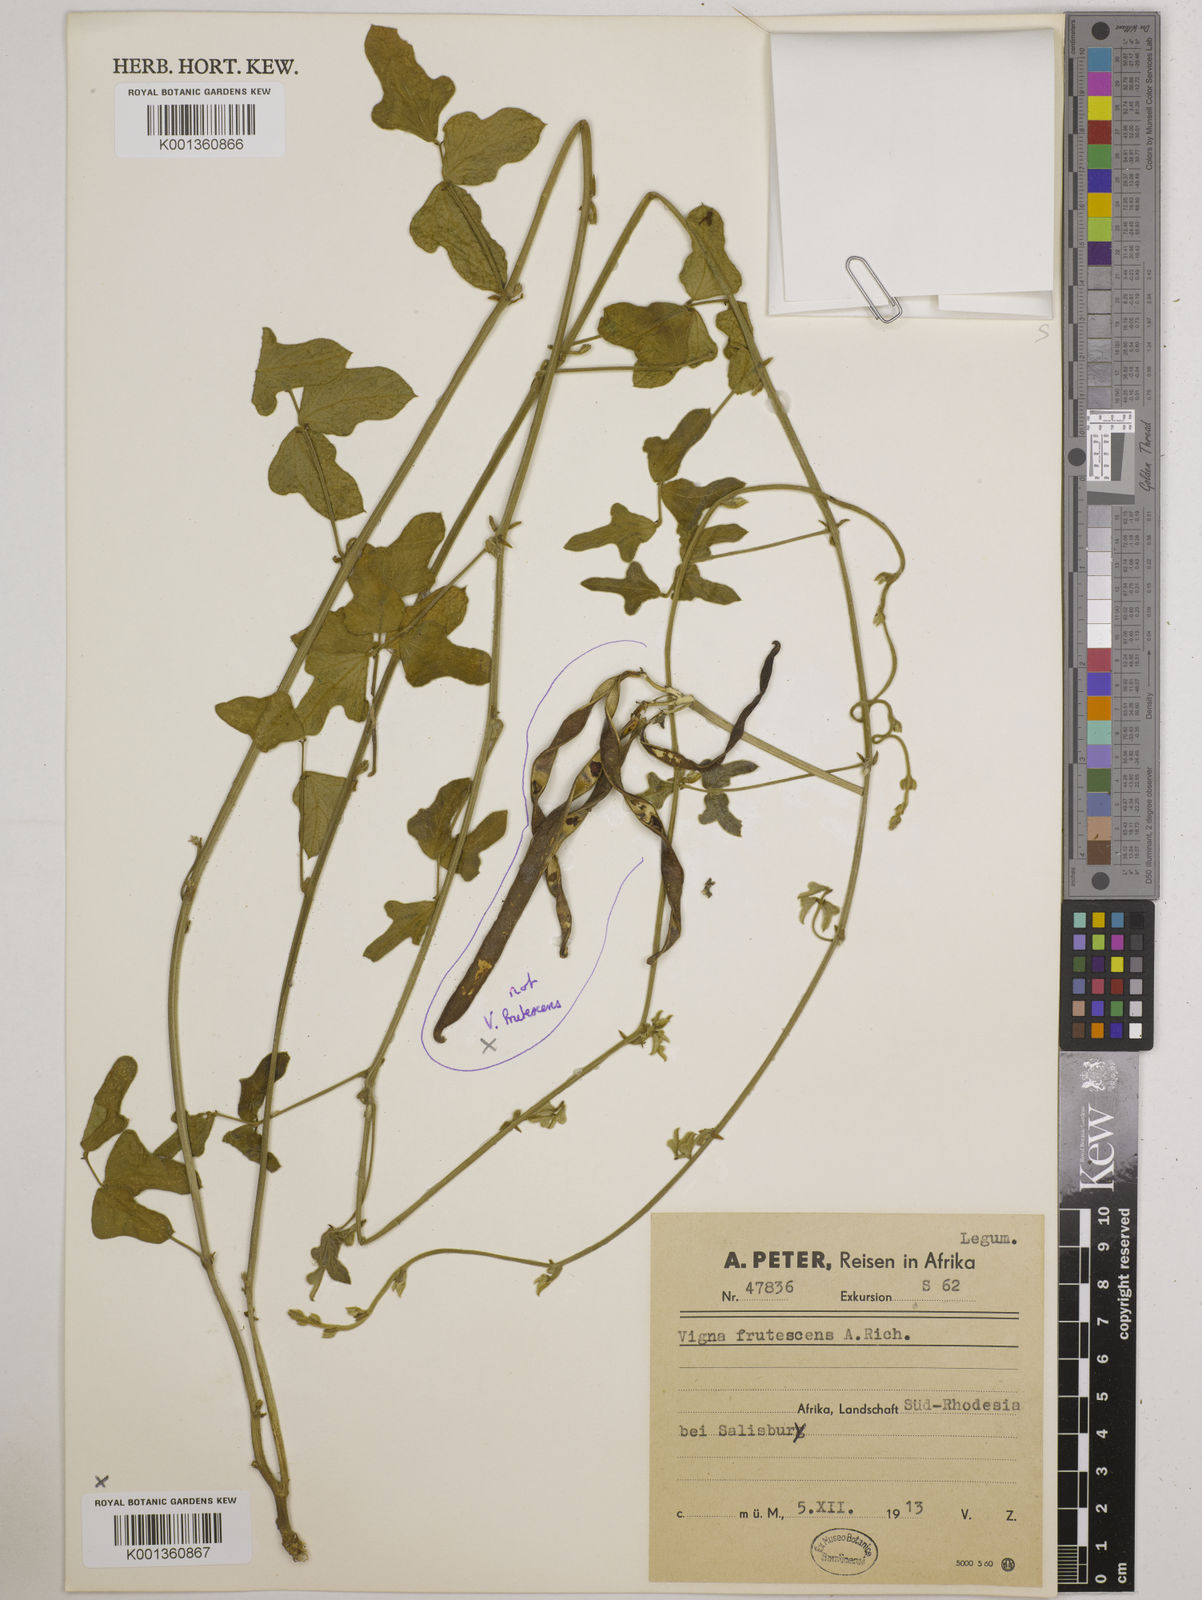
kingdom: Plantae
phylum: Tracheophyta
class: Magnoliopsida
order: Fabales
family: Fabaceae
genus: Vigna
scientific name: Vigna
